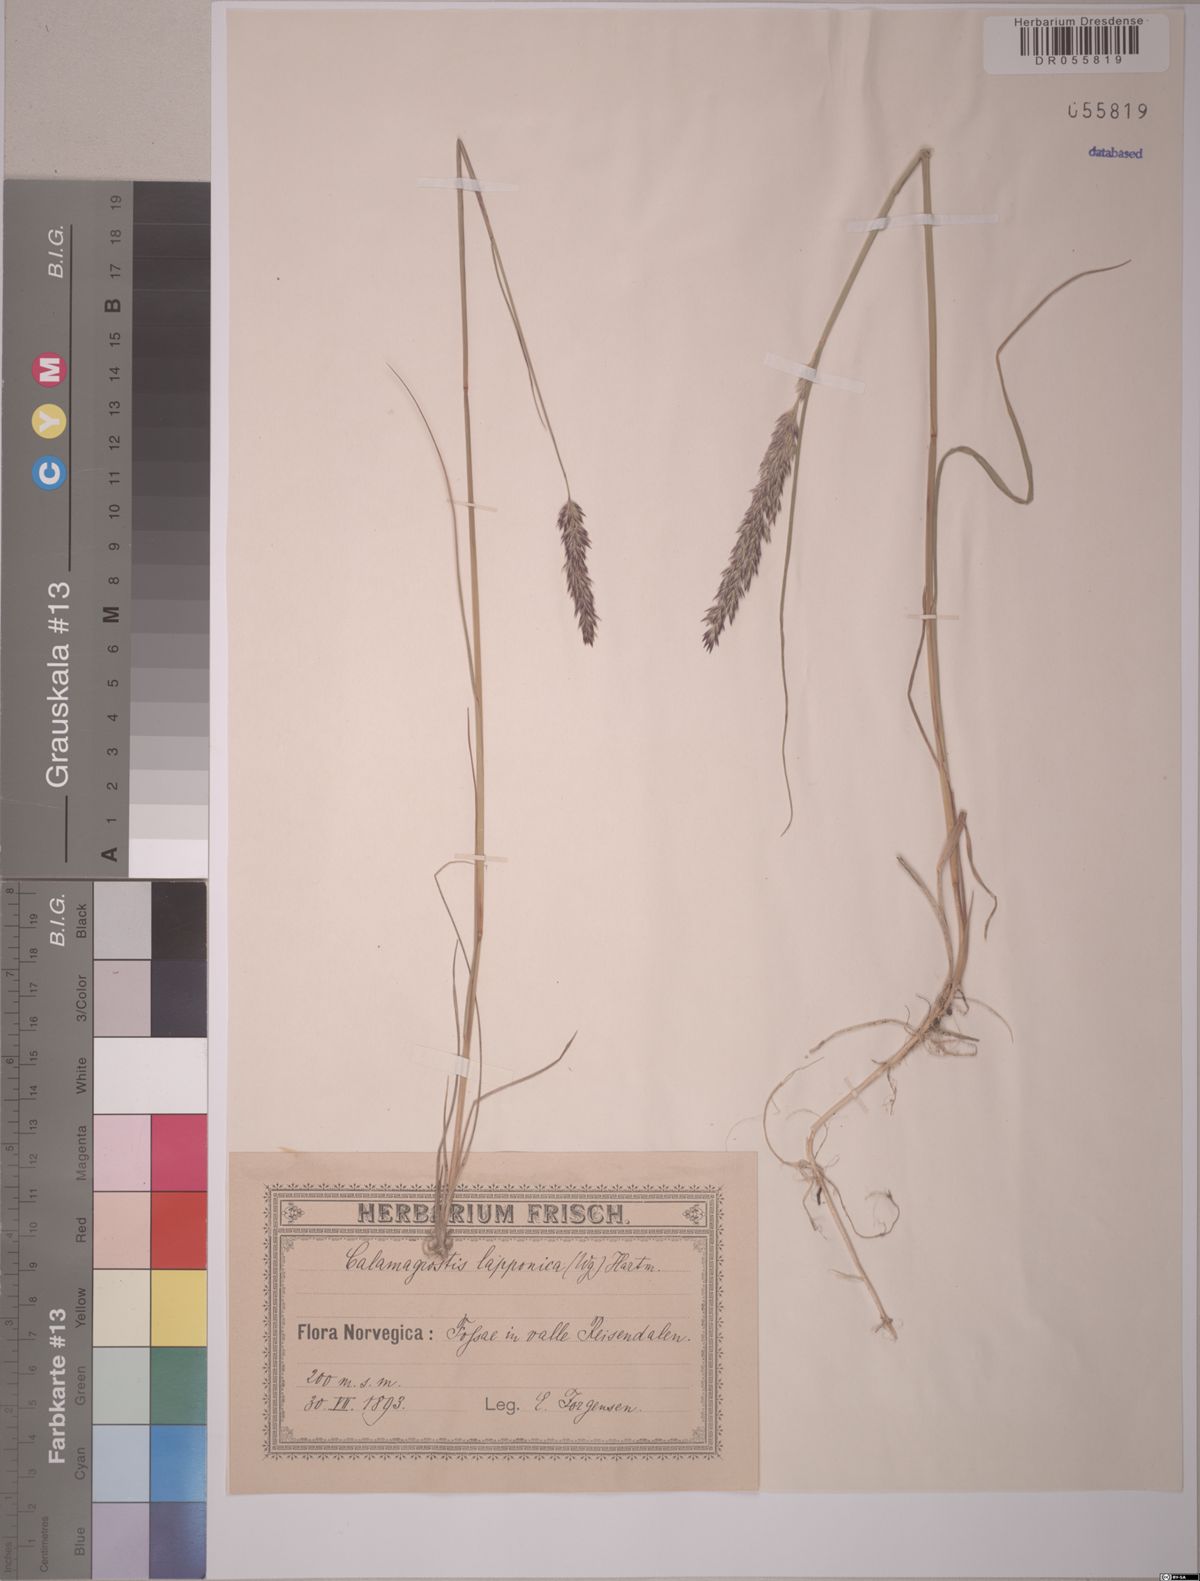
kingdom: Plantae
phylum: Tracheophyta
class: Liliopsida
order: Poales
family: Poaceae
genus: Calamagrostis
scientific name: Calamagrostis lapponica
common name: Lapland reedgrass
